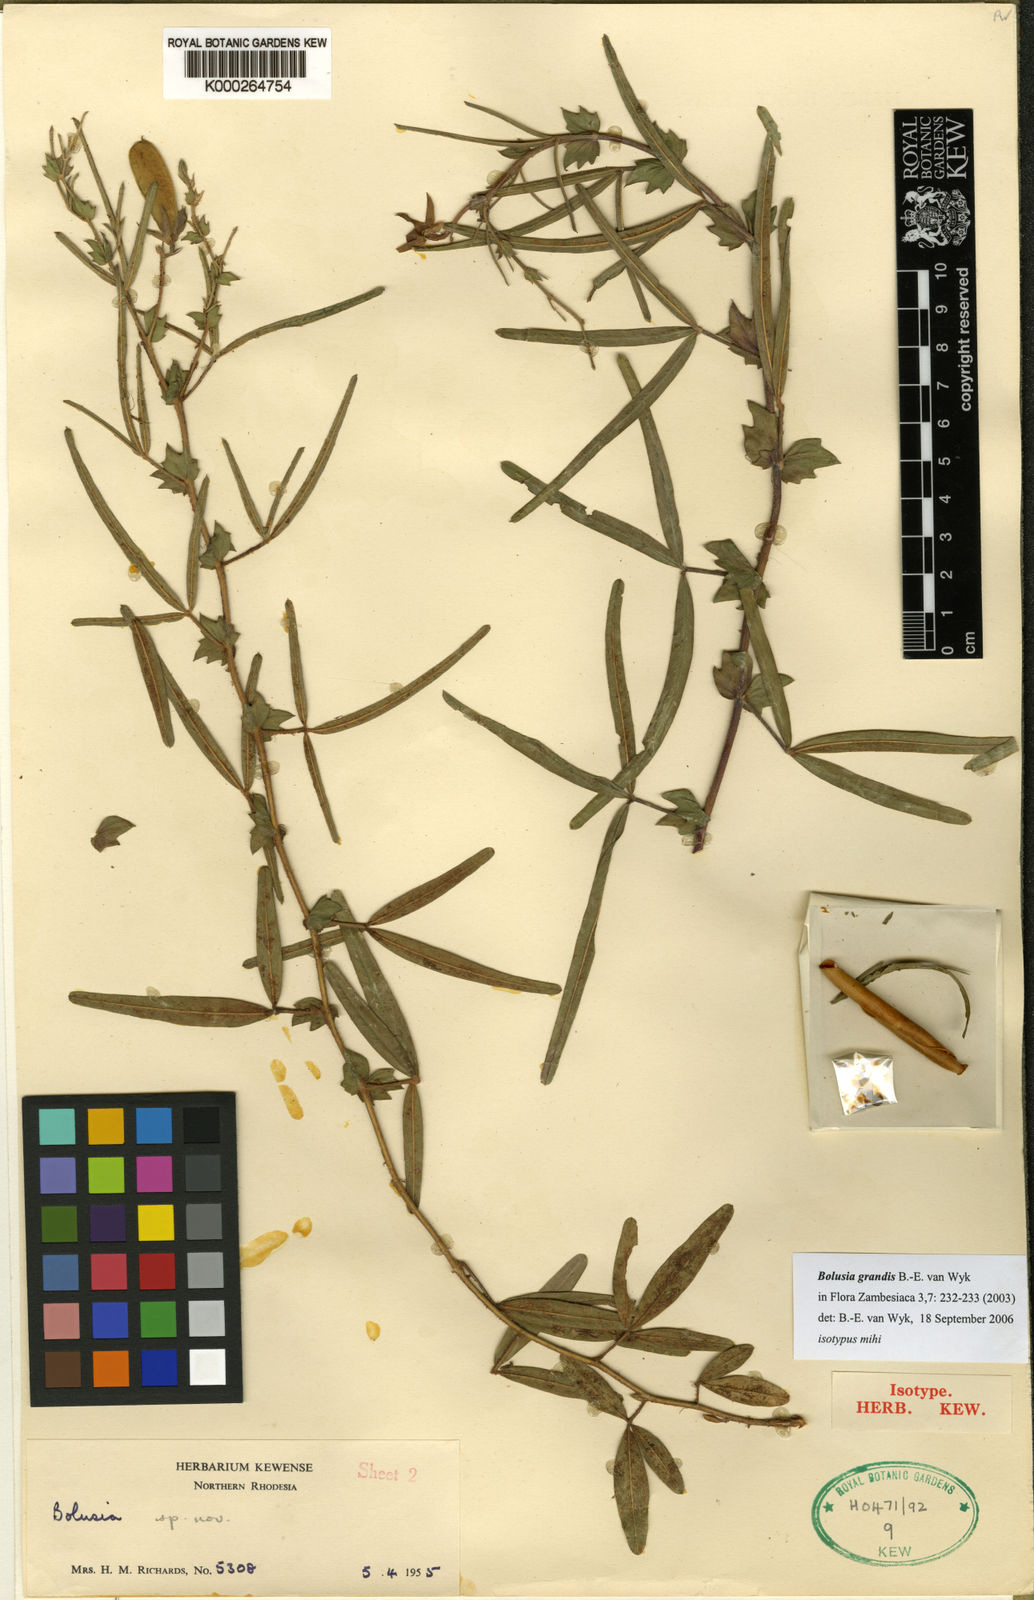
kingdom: Plantae
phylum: Tracheophyta
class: Magnoliopsida
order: Fabales
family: Fabaceae
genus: Bolusia
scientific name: Bolusia
